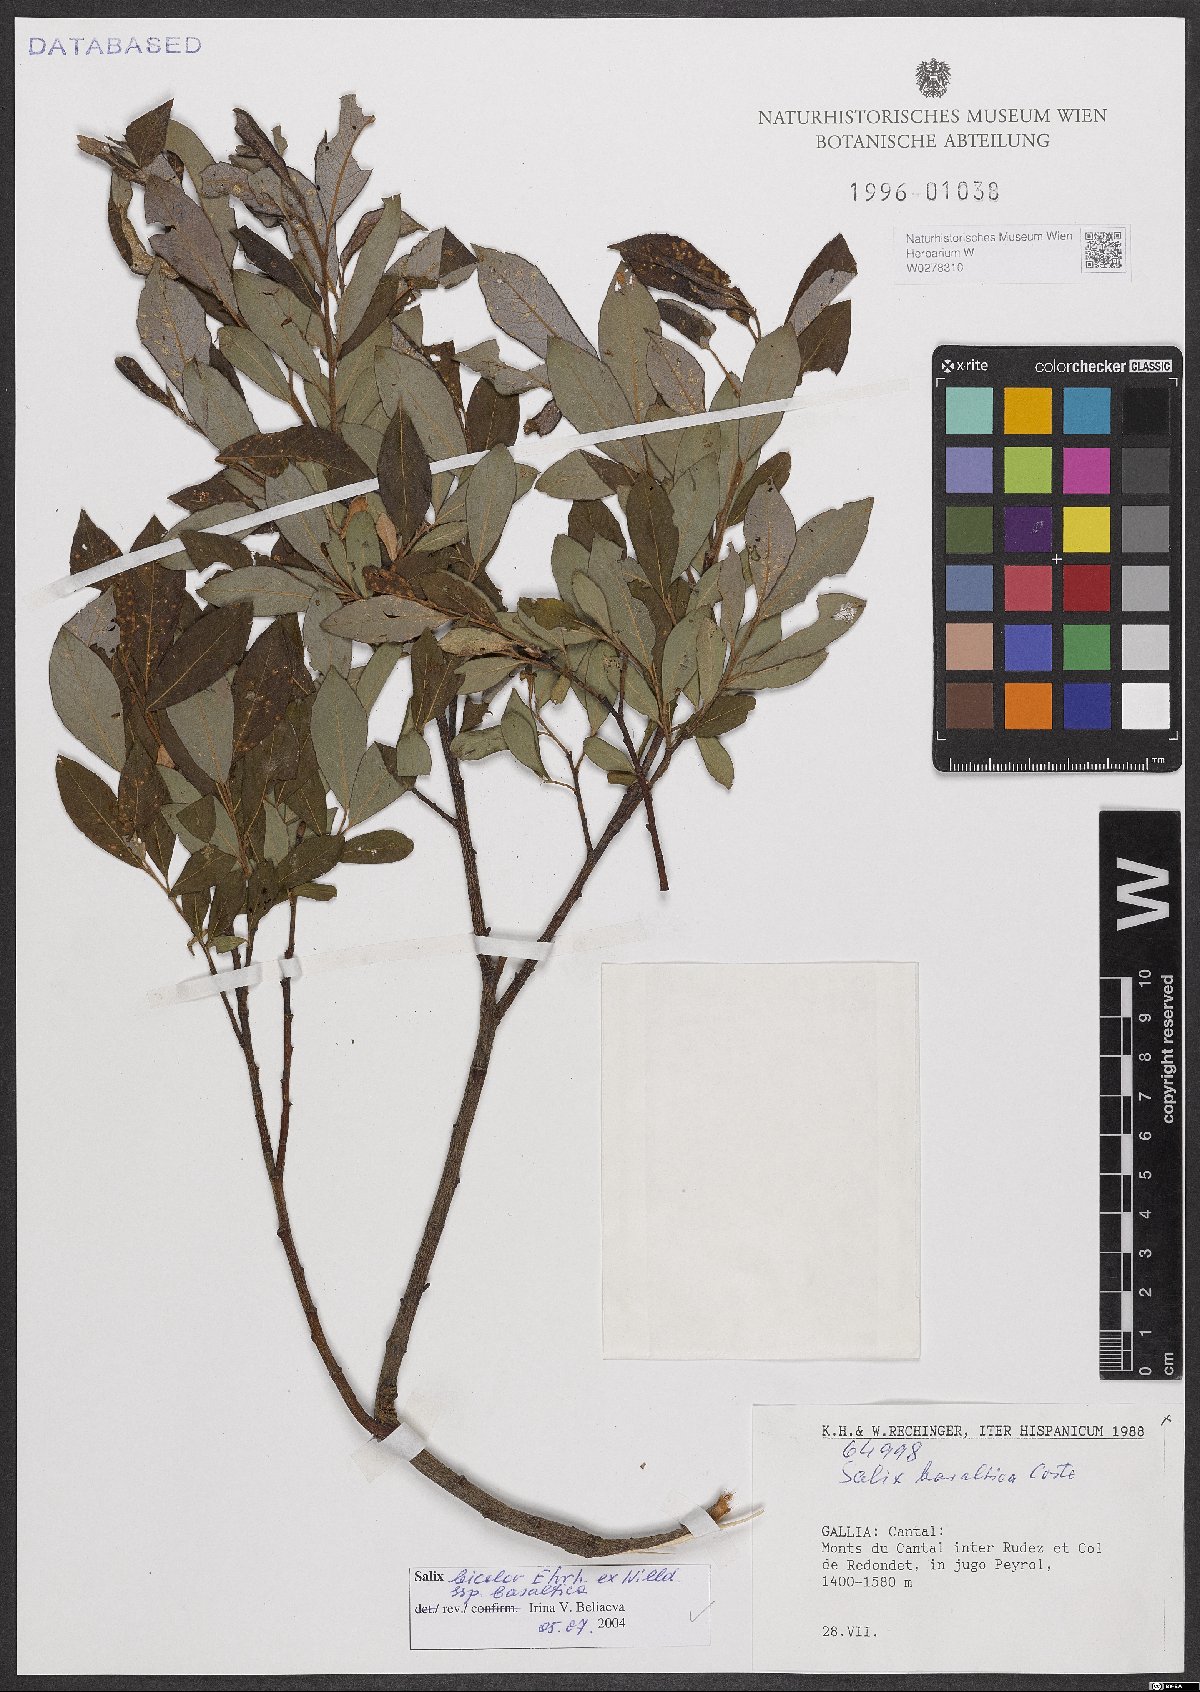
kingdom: Plantae
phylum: Tracheophyta
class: Magnoliopsida
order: Malpighiales
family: Salicaceae
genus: Salix
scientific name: Salix basaltica
